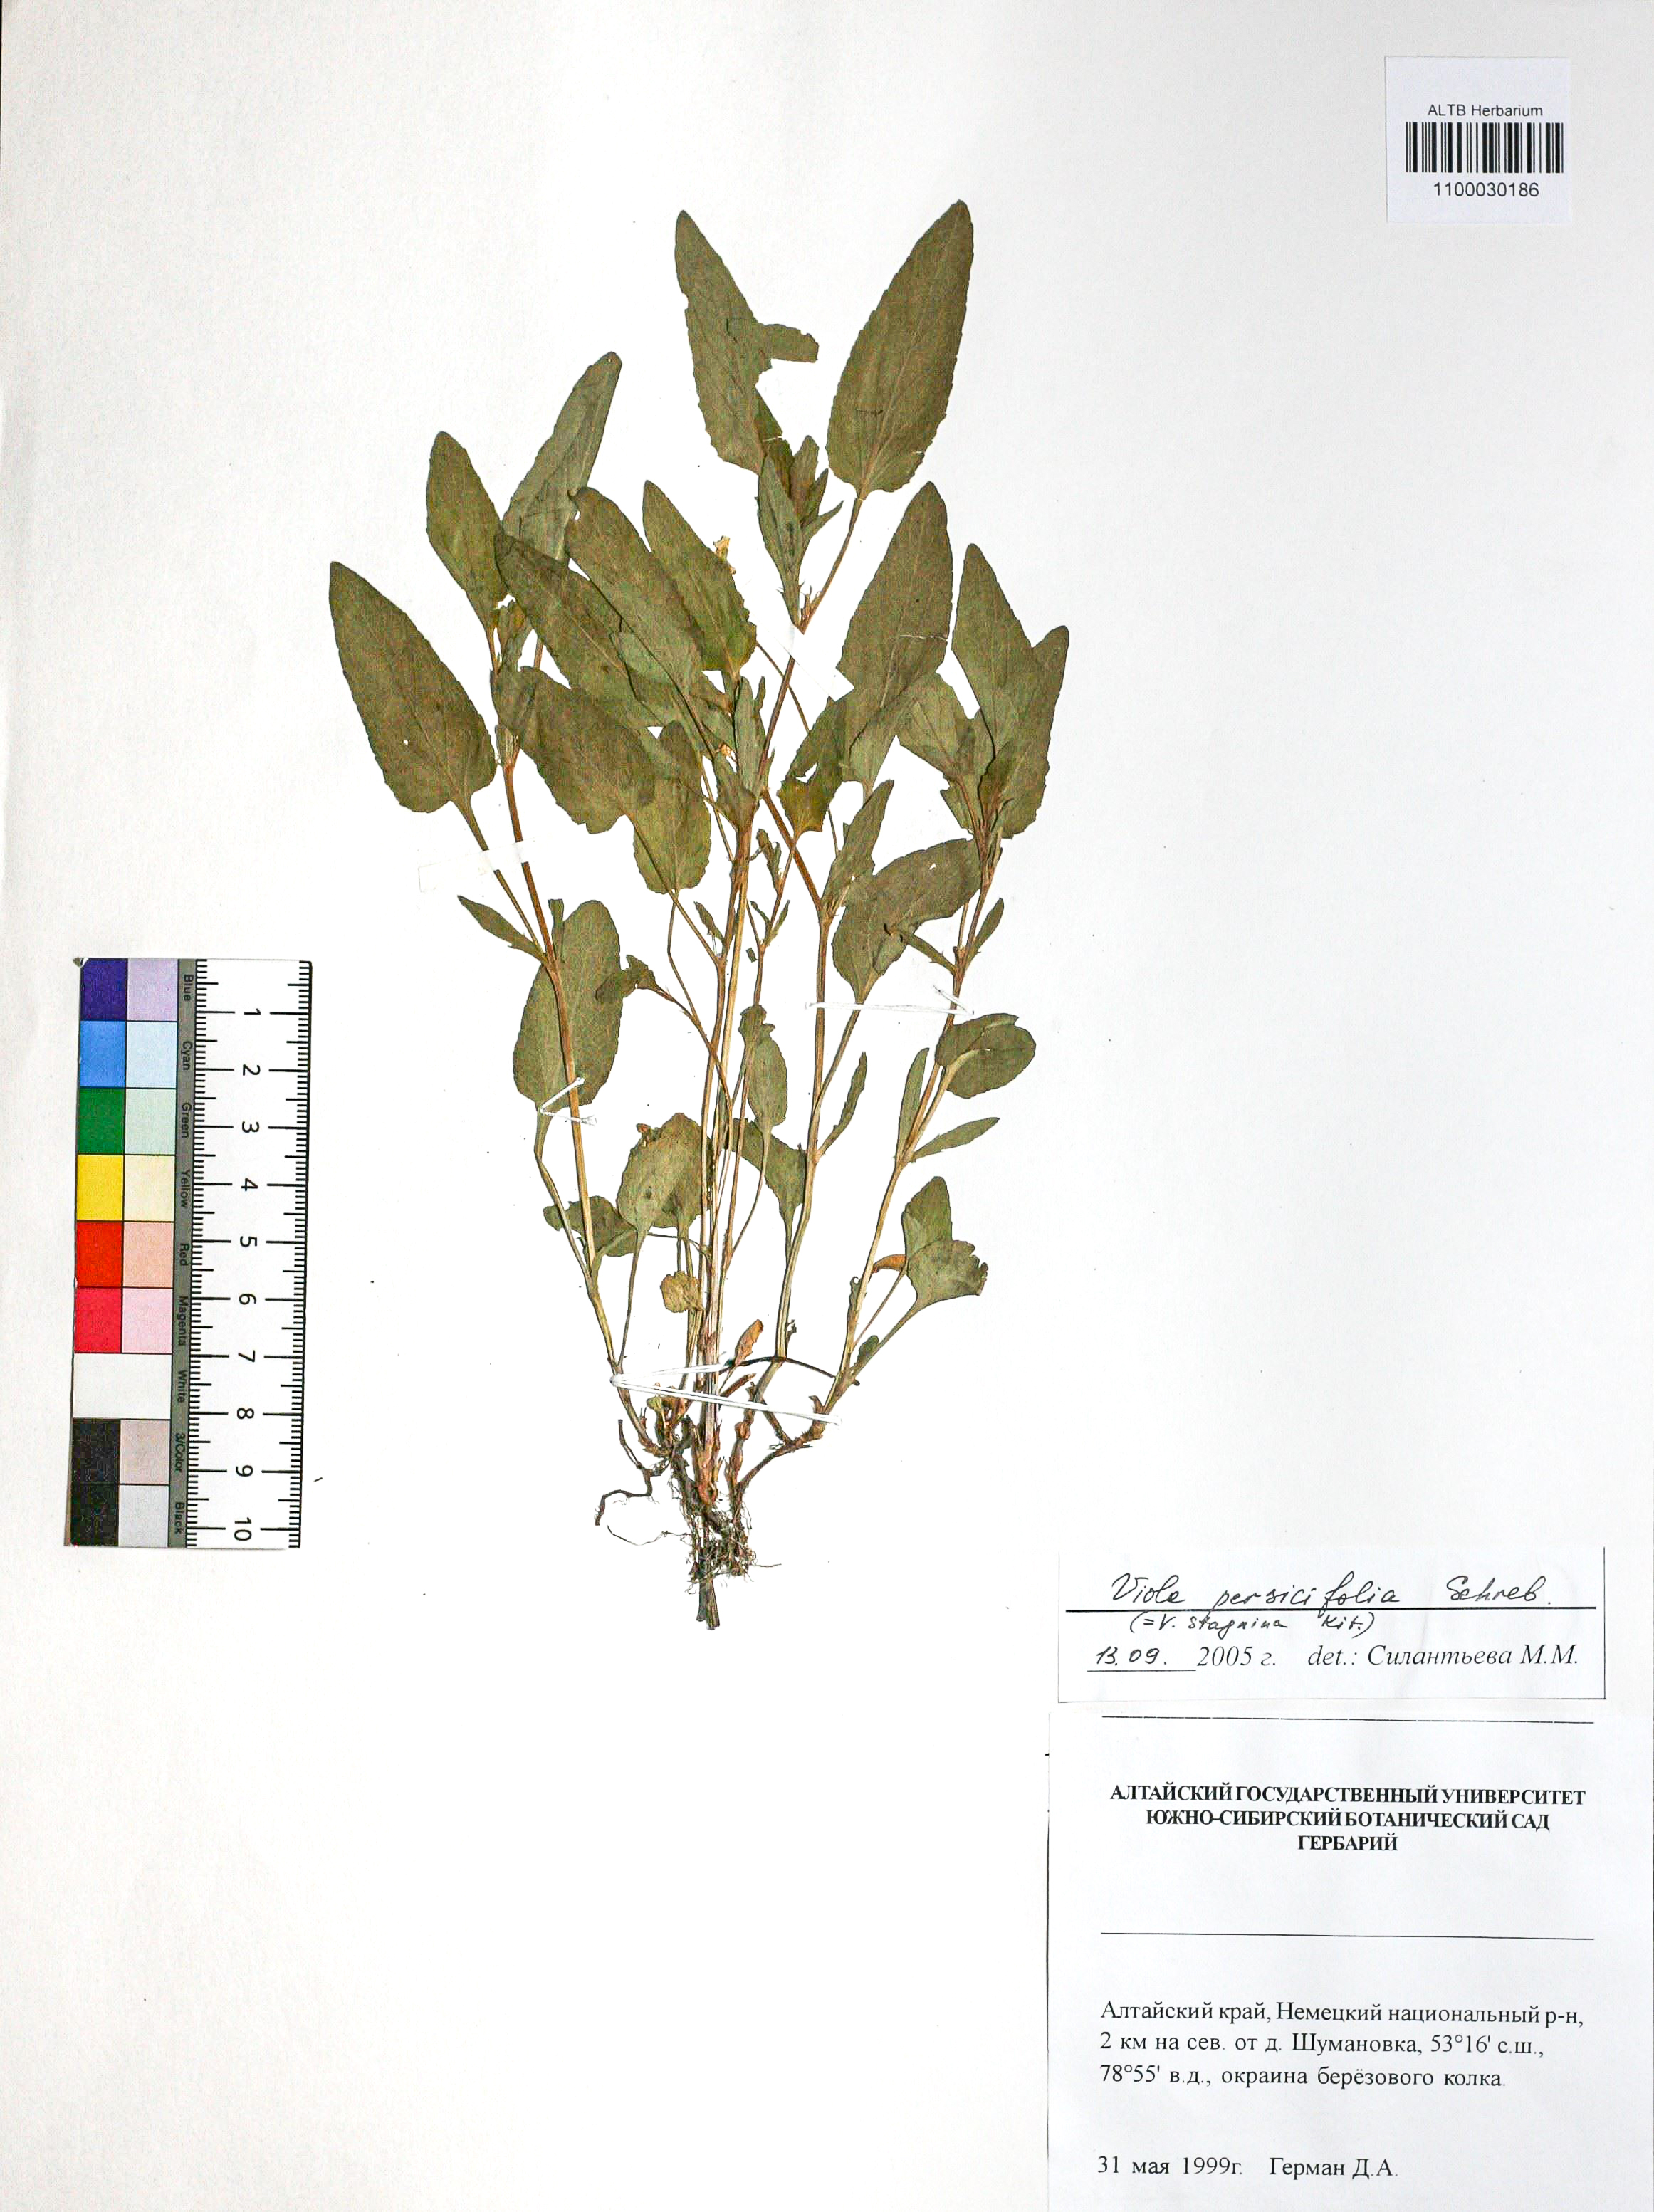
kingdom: Plantae
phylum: Tracheophyta
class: Magnoliopsida
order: Malpighiales
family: Violaceae
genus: Viola
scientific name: Viola stagnina
